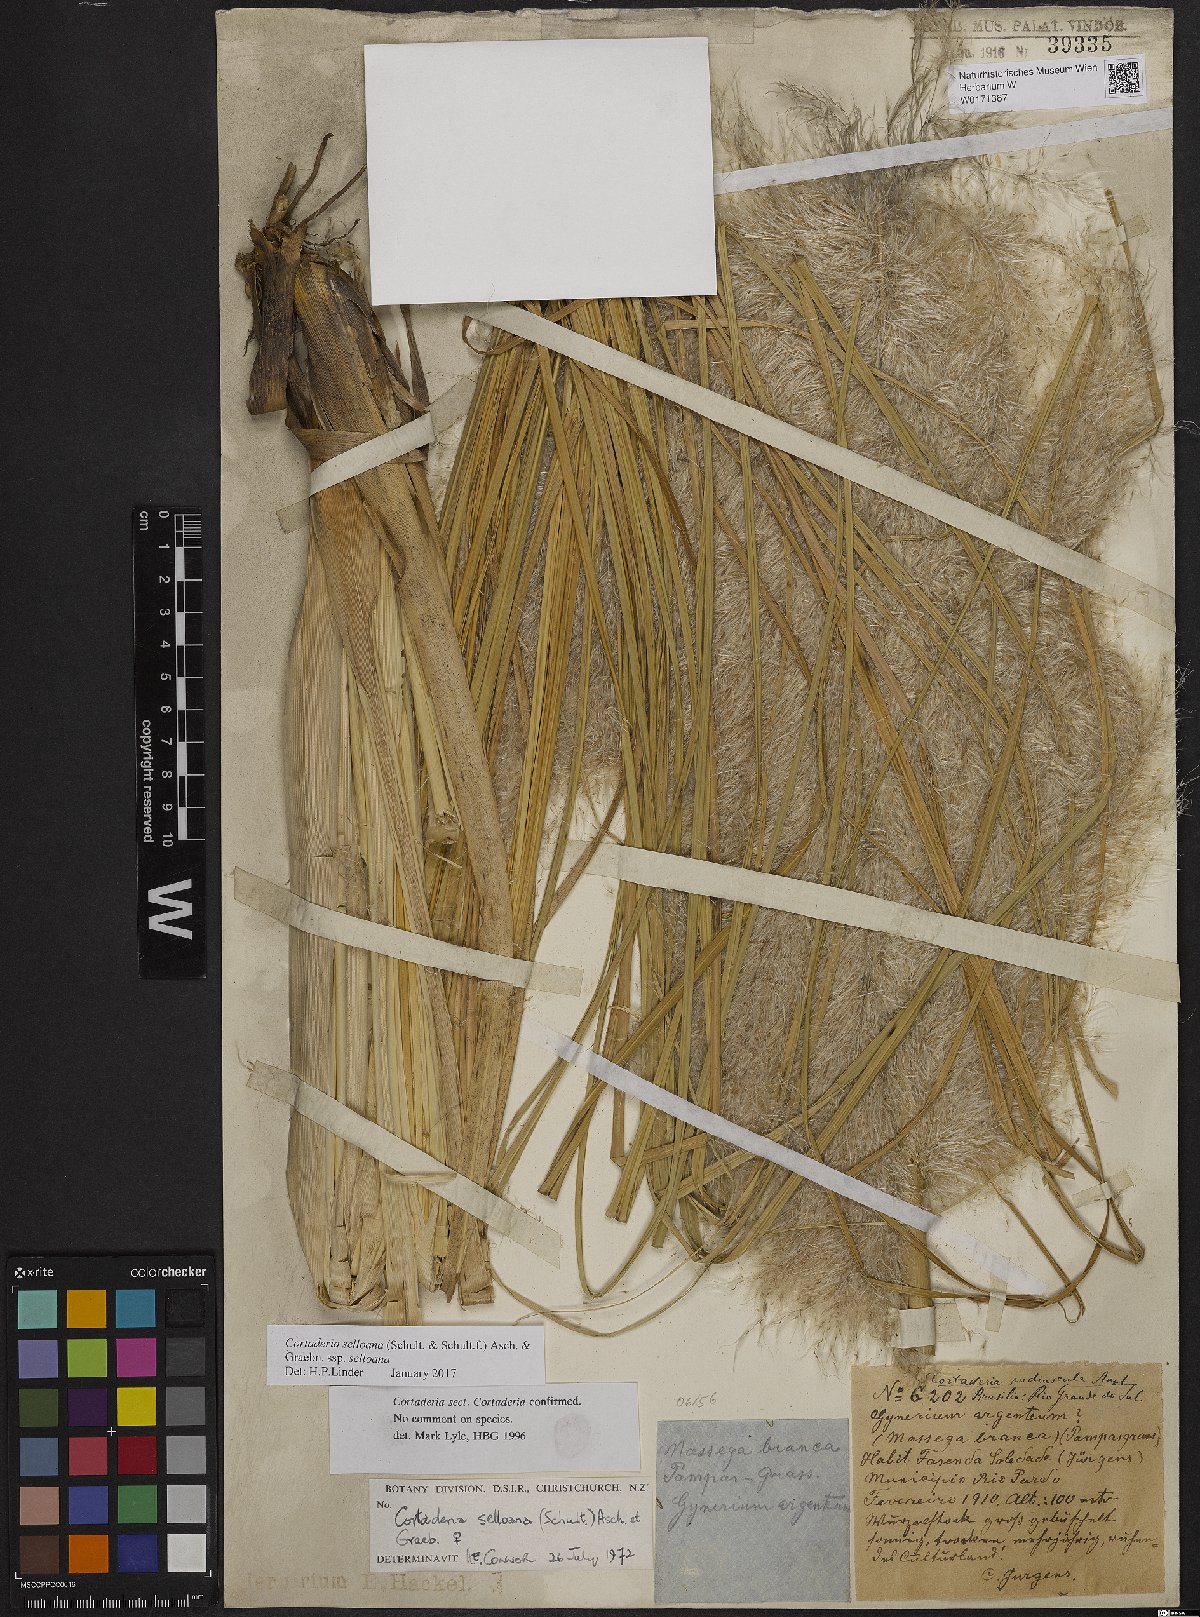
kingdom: Plantae
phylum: Tracheophyta
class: Liliopsida
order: Poales
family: Poaceae
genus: Cortaderia
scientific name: Cortaderia selloana
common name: Uruguayan pampas grass
